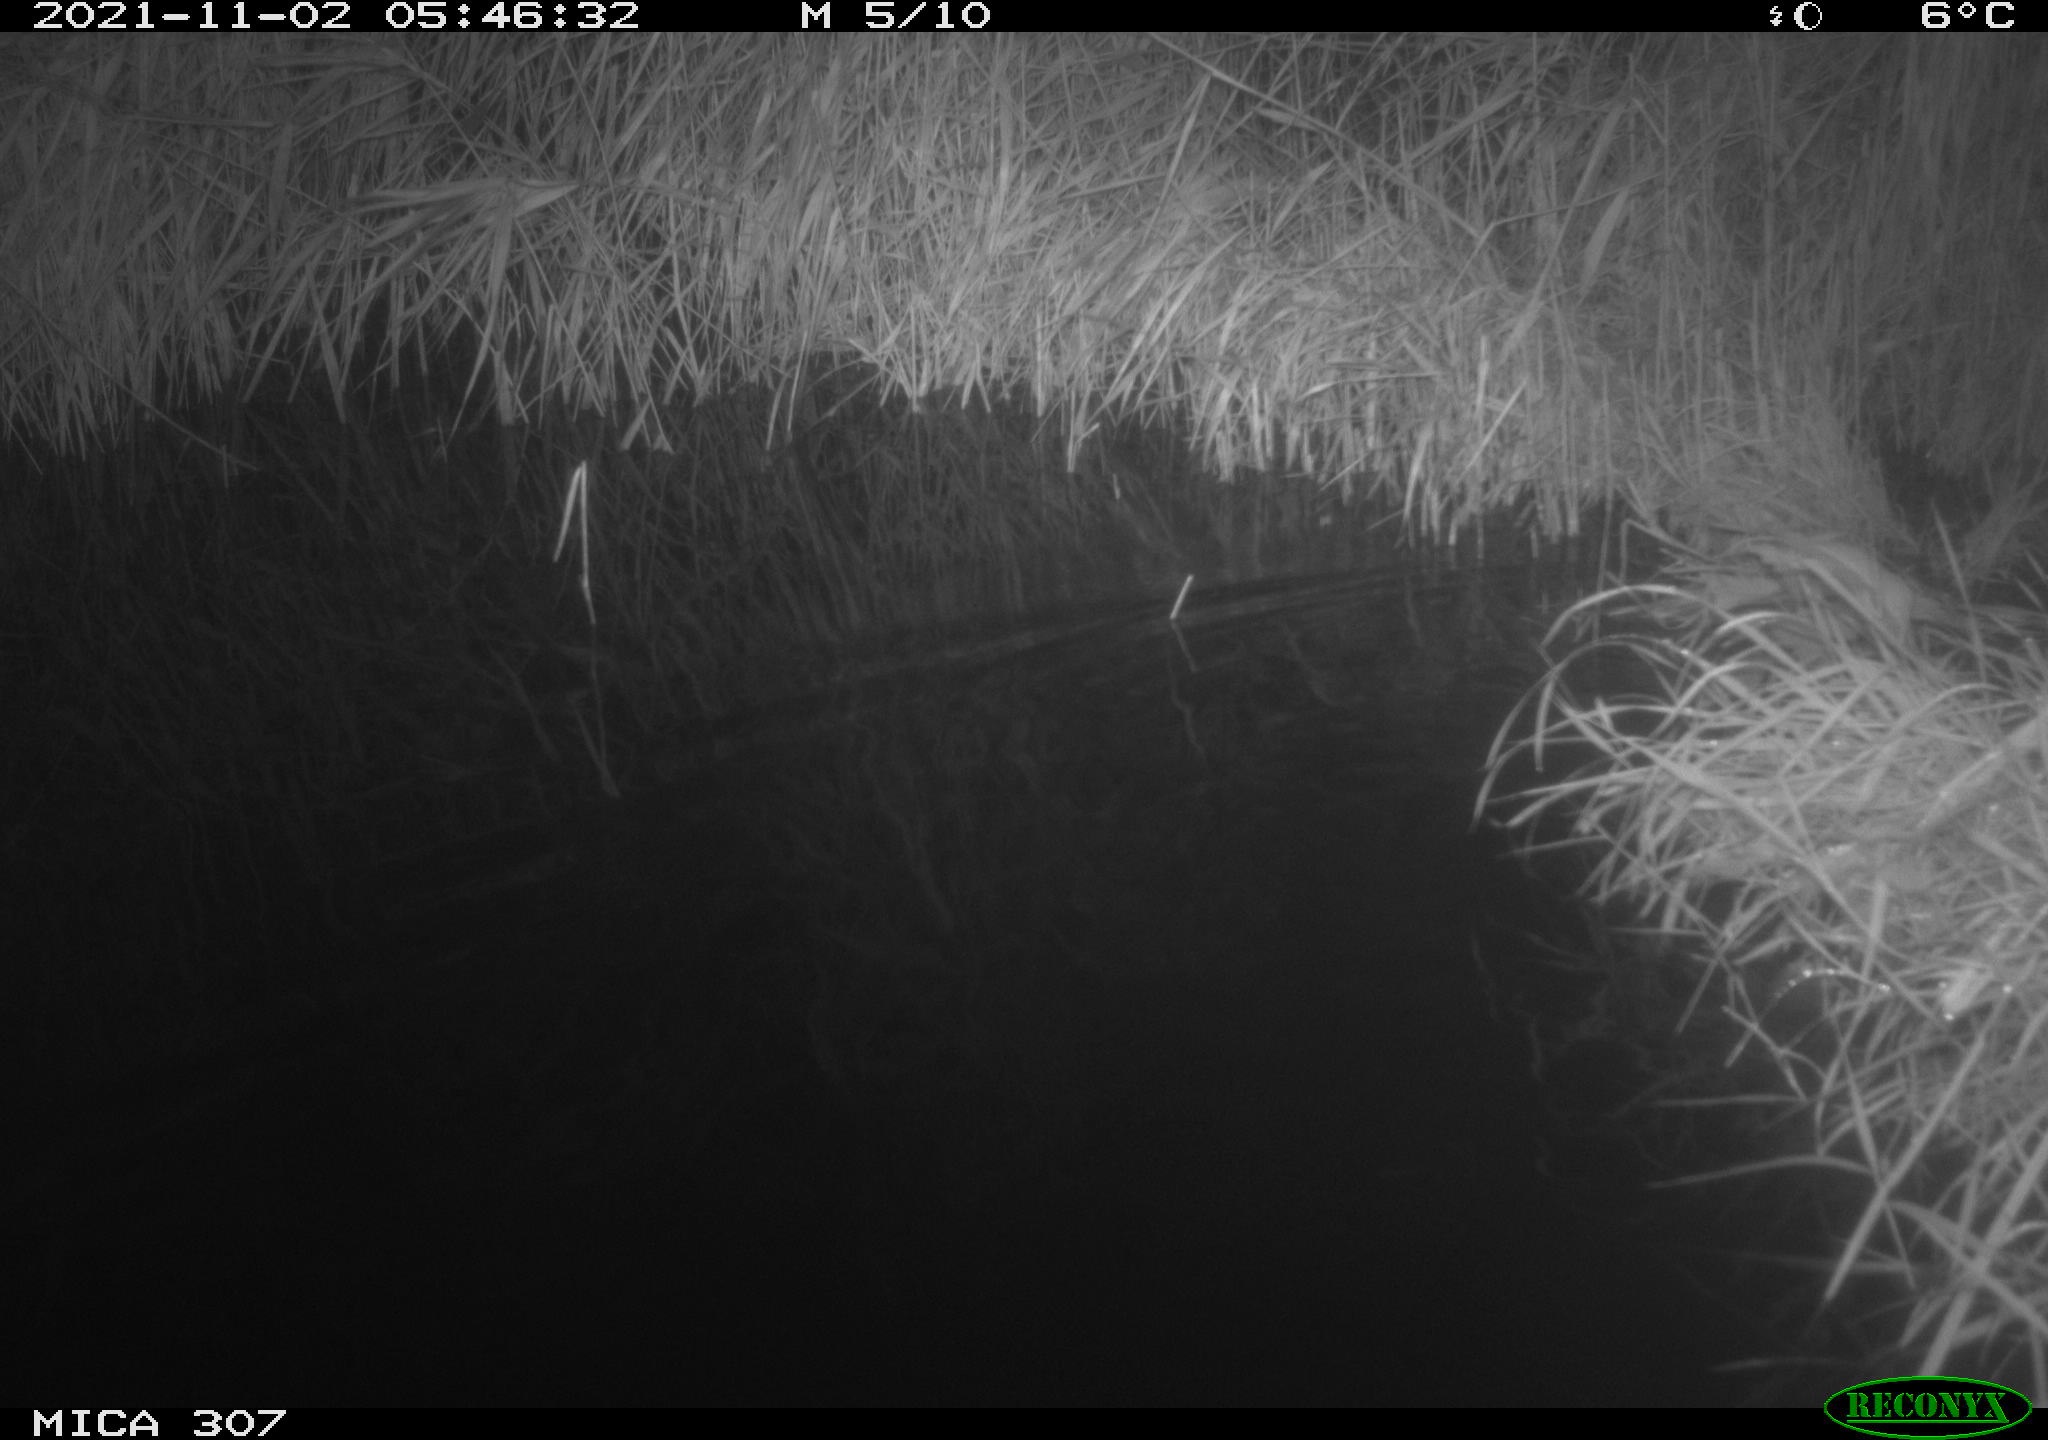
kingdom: Animalia
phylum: Chordata
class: Mammalia
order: Rodentia
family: Muridae
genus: Rattus
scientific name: Rattus norvegicus
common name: Brown rat
